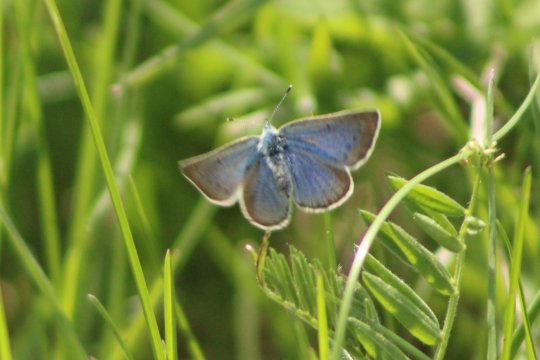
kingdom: Animalia
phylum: Arthropoda
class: Insecta
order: Lepidoptera
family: Lycaenidae
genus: Glaucopsyche
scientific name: Glaucopsyche lygdamus
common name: Silvery Blue
